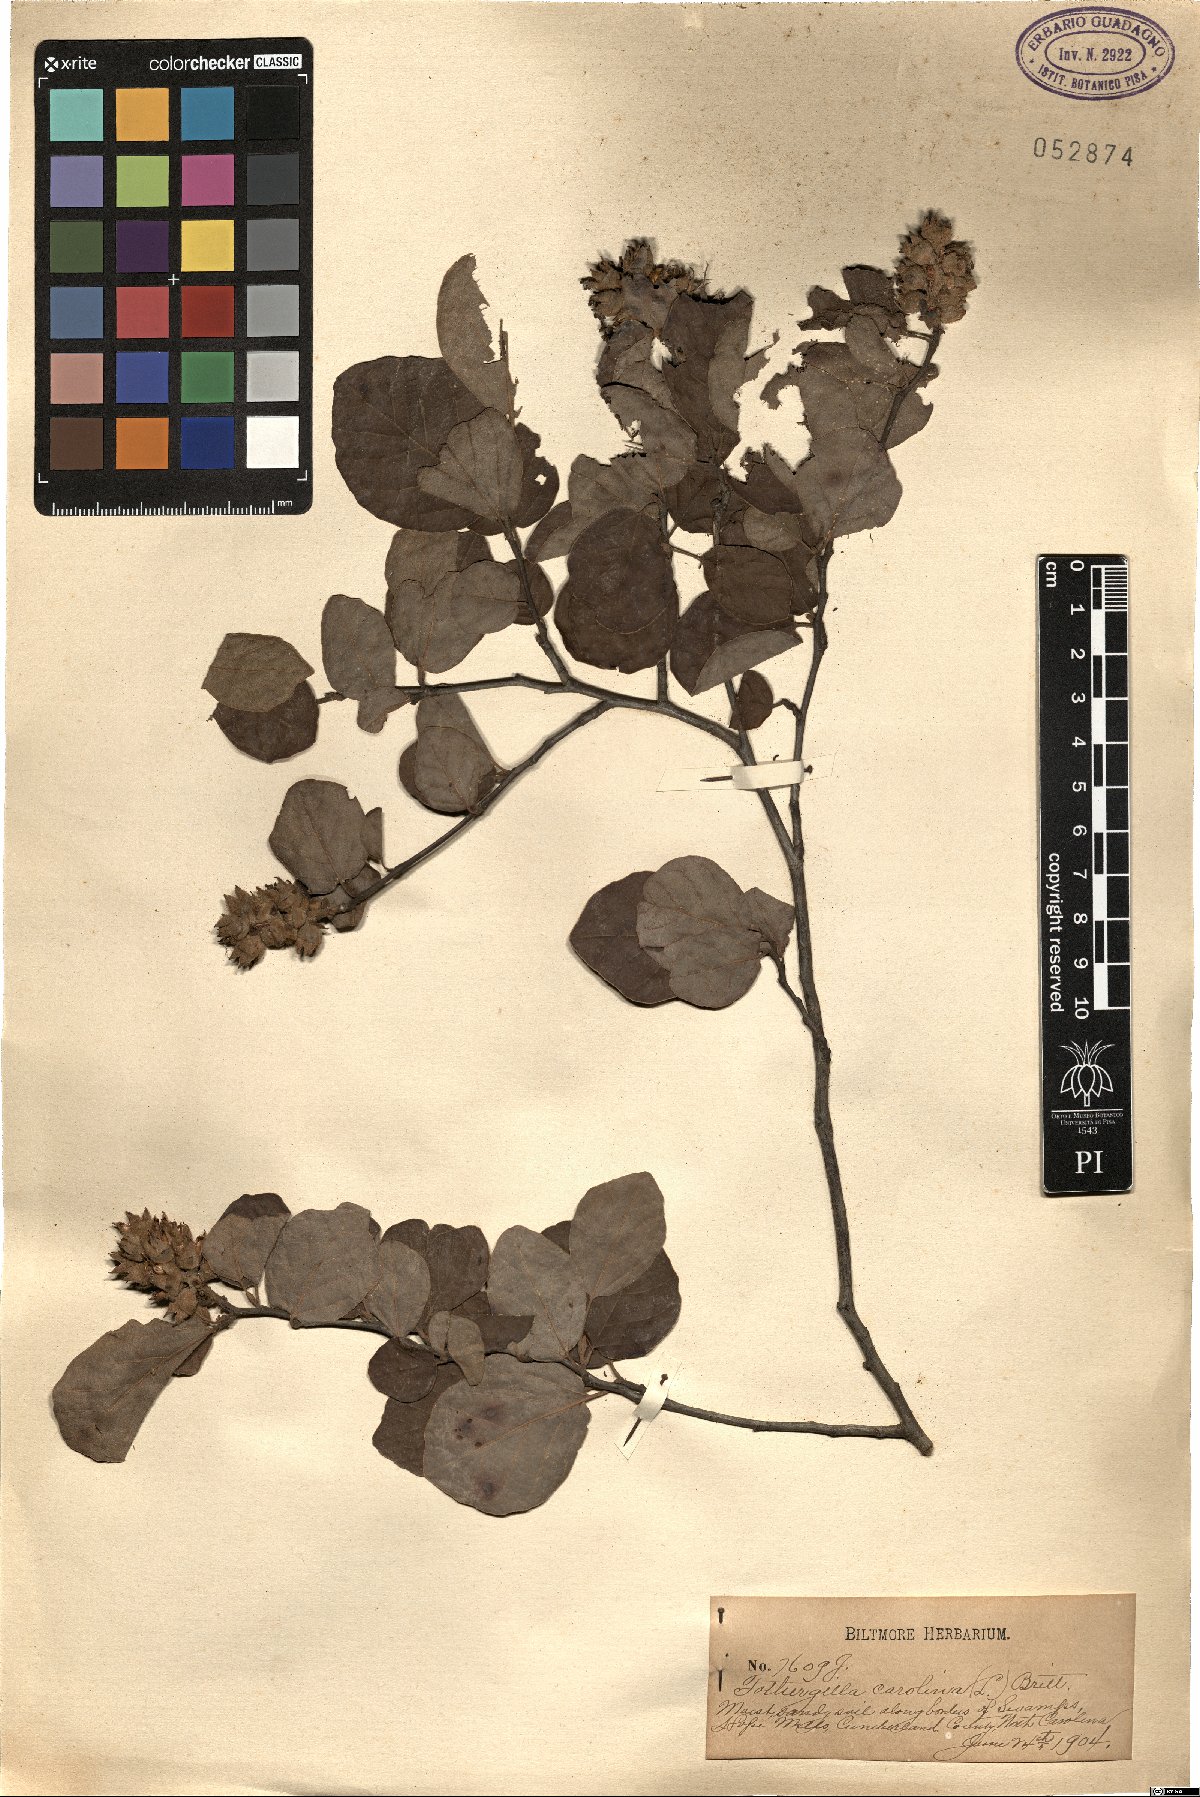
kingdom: Plantae
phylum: Tracheophyta
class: Magnoliopsida
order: Saxifragales
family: Hamamelidaceae
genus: Fothergilla
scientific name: Fothergilla gardenii
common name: Dwarf witch-alder
